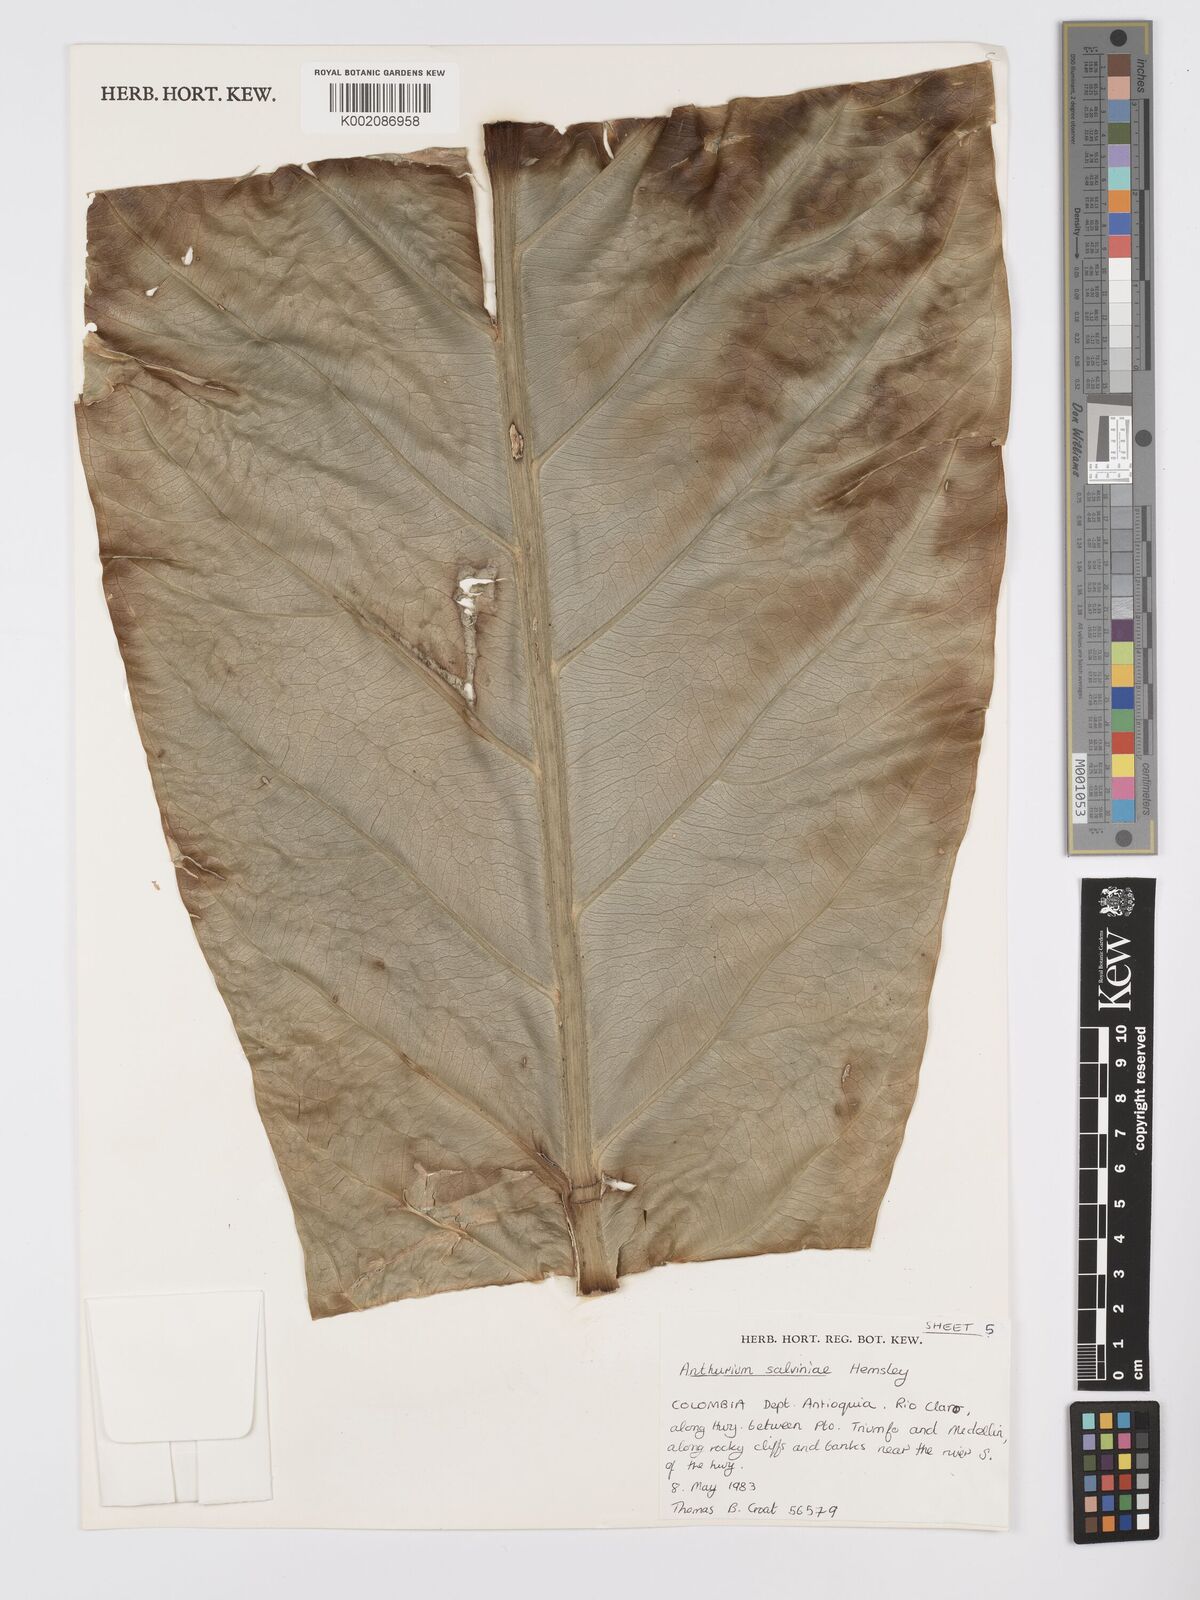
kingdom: Plantae
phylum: Tracheophyta
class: Liliopsida
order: Alismatales
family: Araceae
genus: Anthurium
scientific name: Anthurium salvinii
